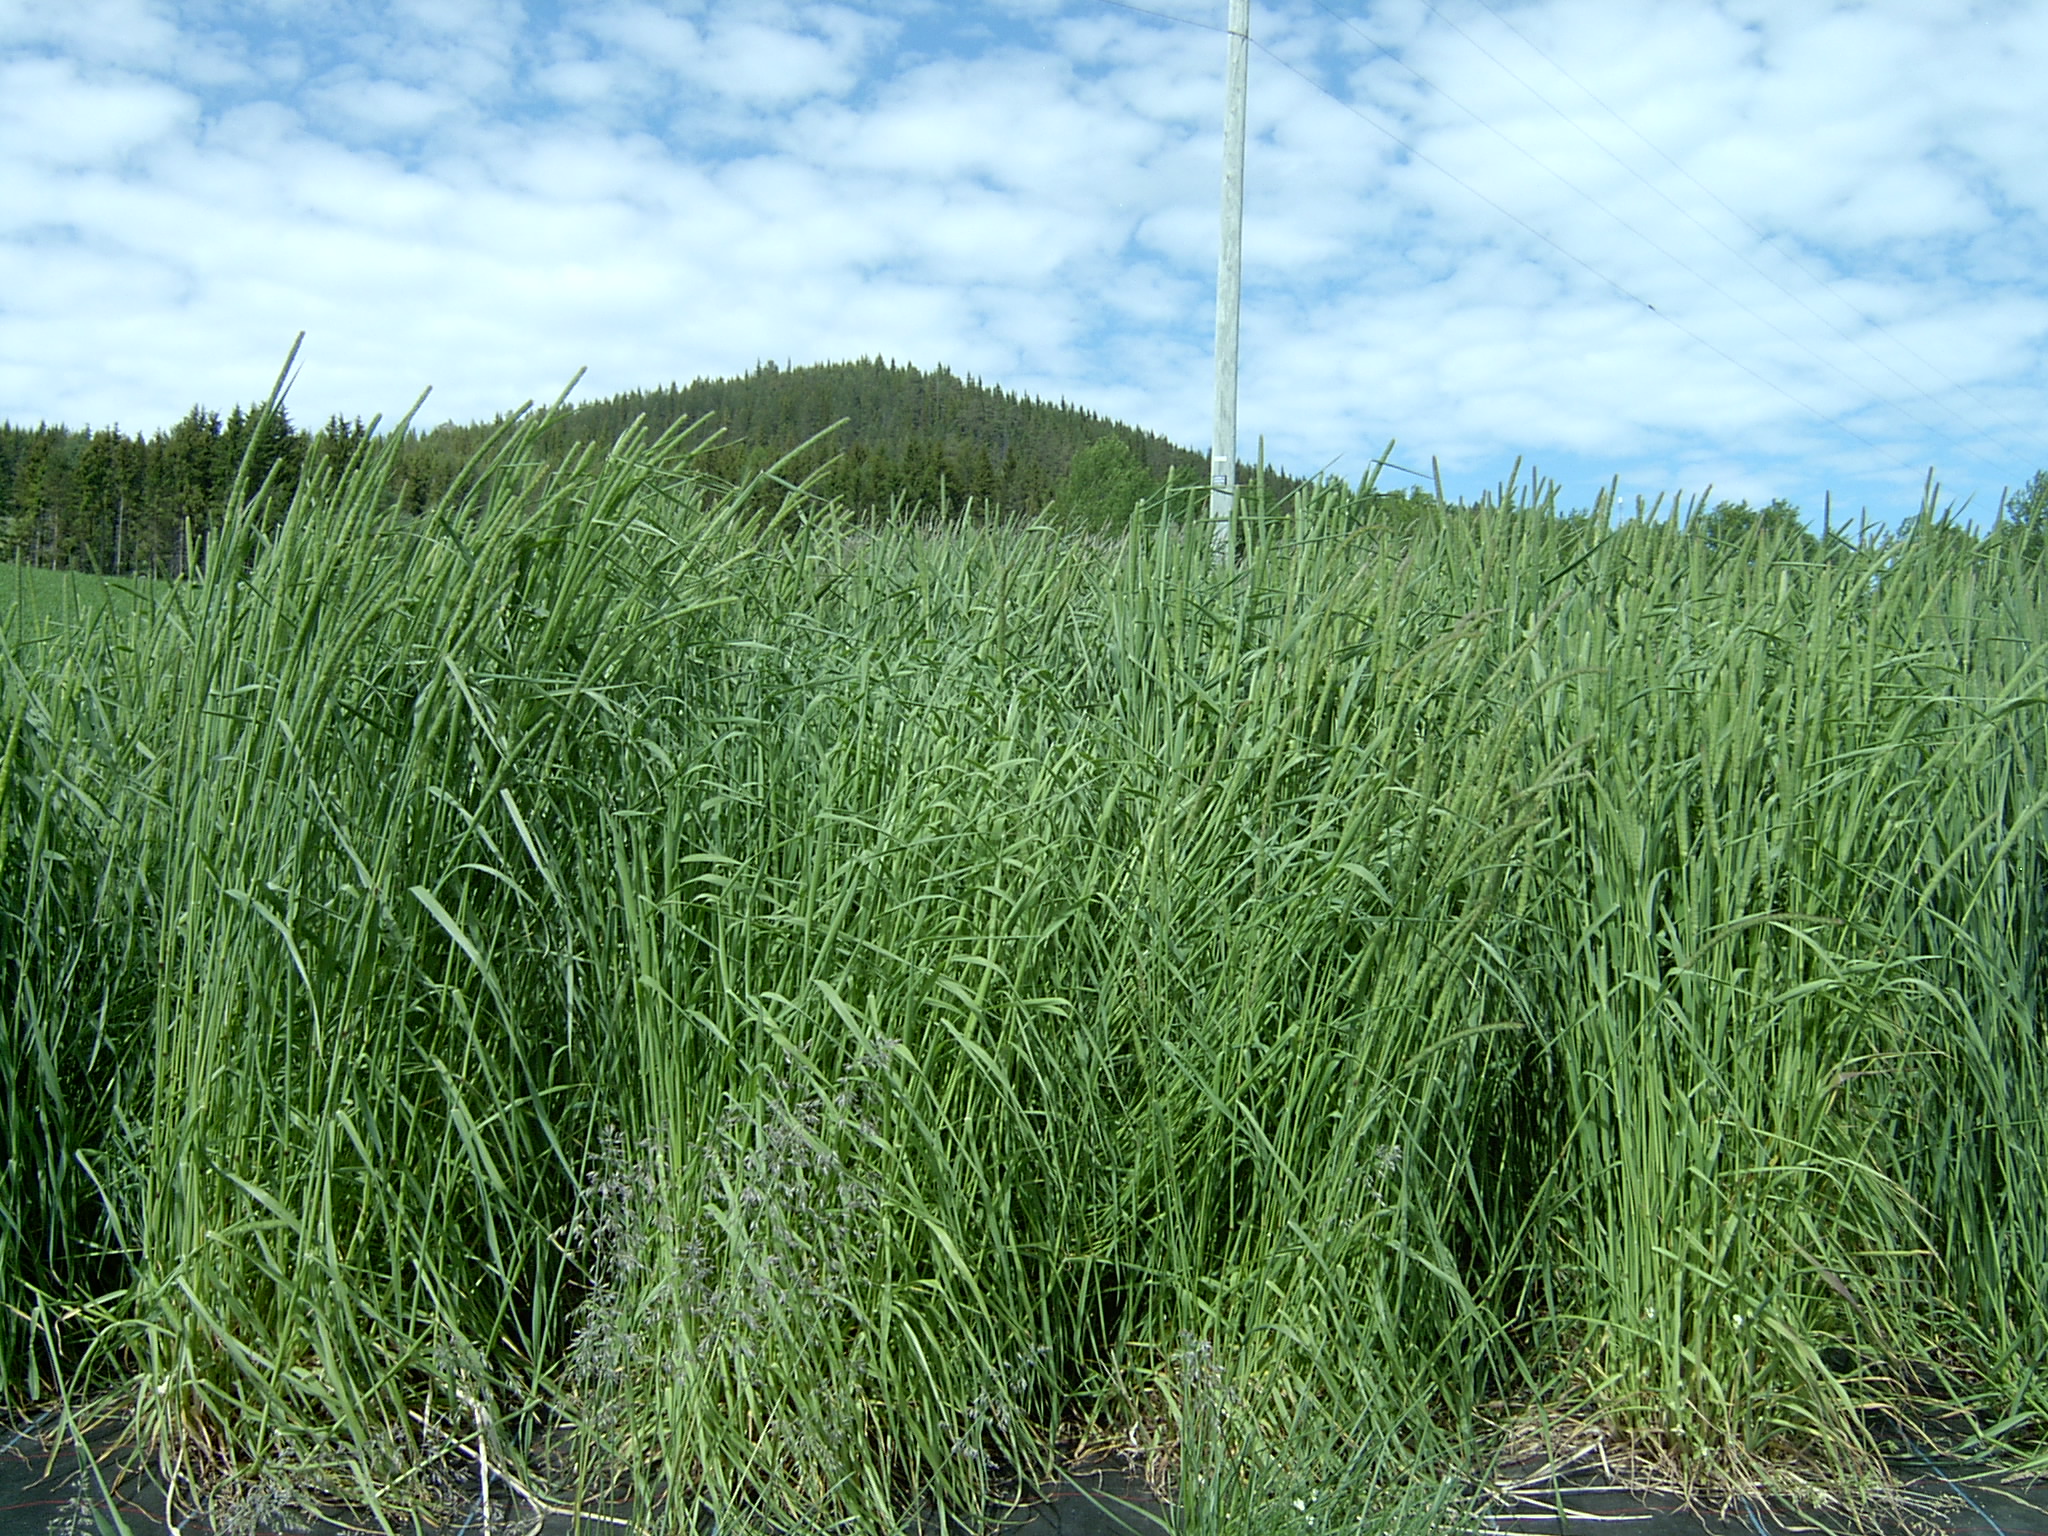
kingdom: Plantae
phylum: Tracheophyta
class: Liliopsida
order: Poales
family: Poaceae
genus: Phleum
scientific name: Phleum pratense
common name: Timothy grass
